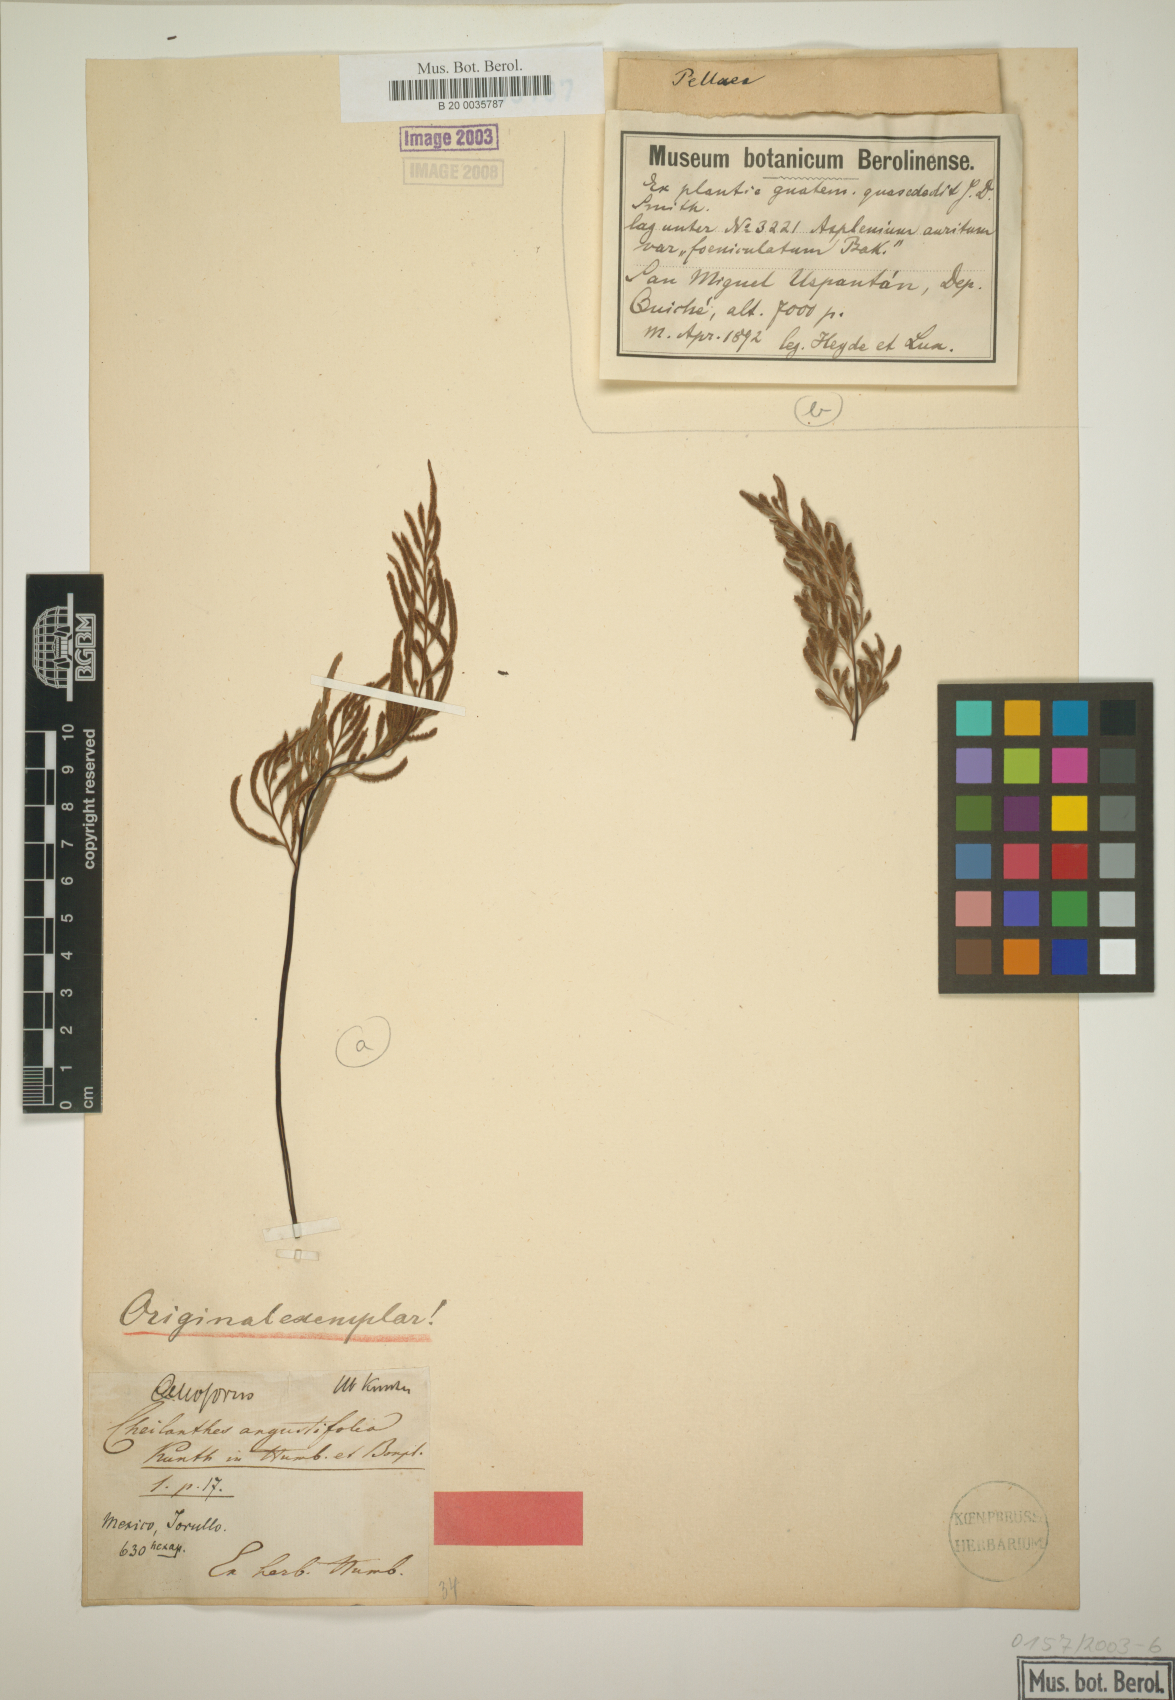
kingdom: Plantae
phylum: Tracheophyta
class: Polypodiopsida
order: Polypodiales
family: Pteridaceae
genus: Gaga
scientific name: Gaga angustifolia
